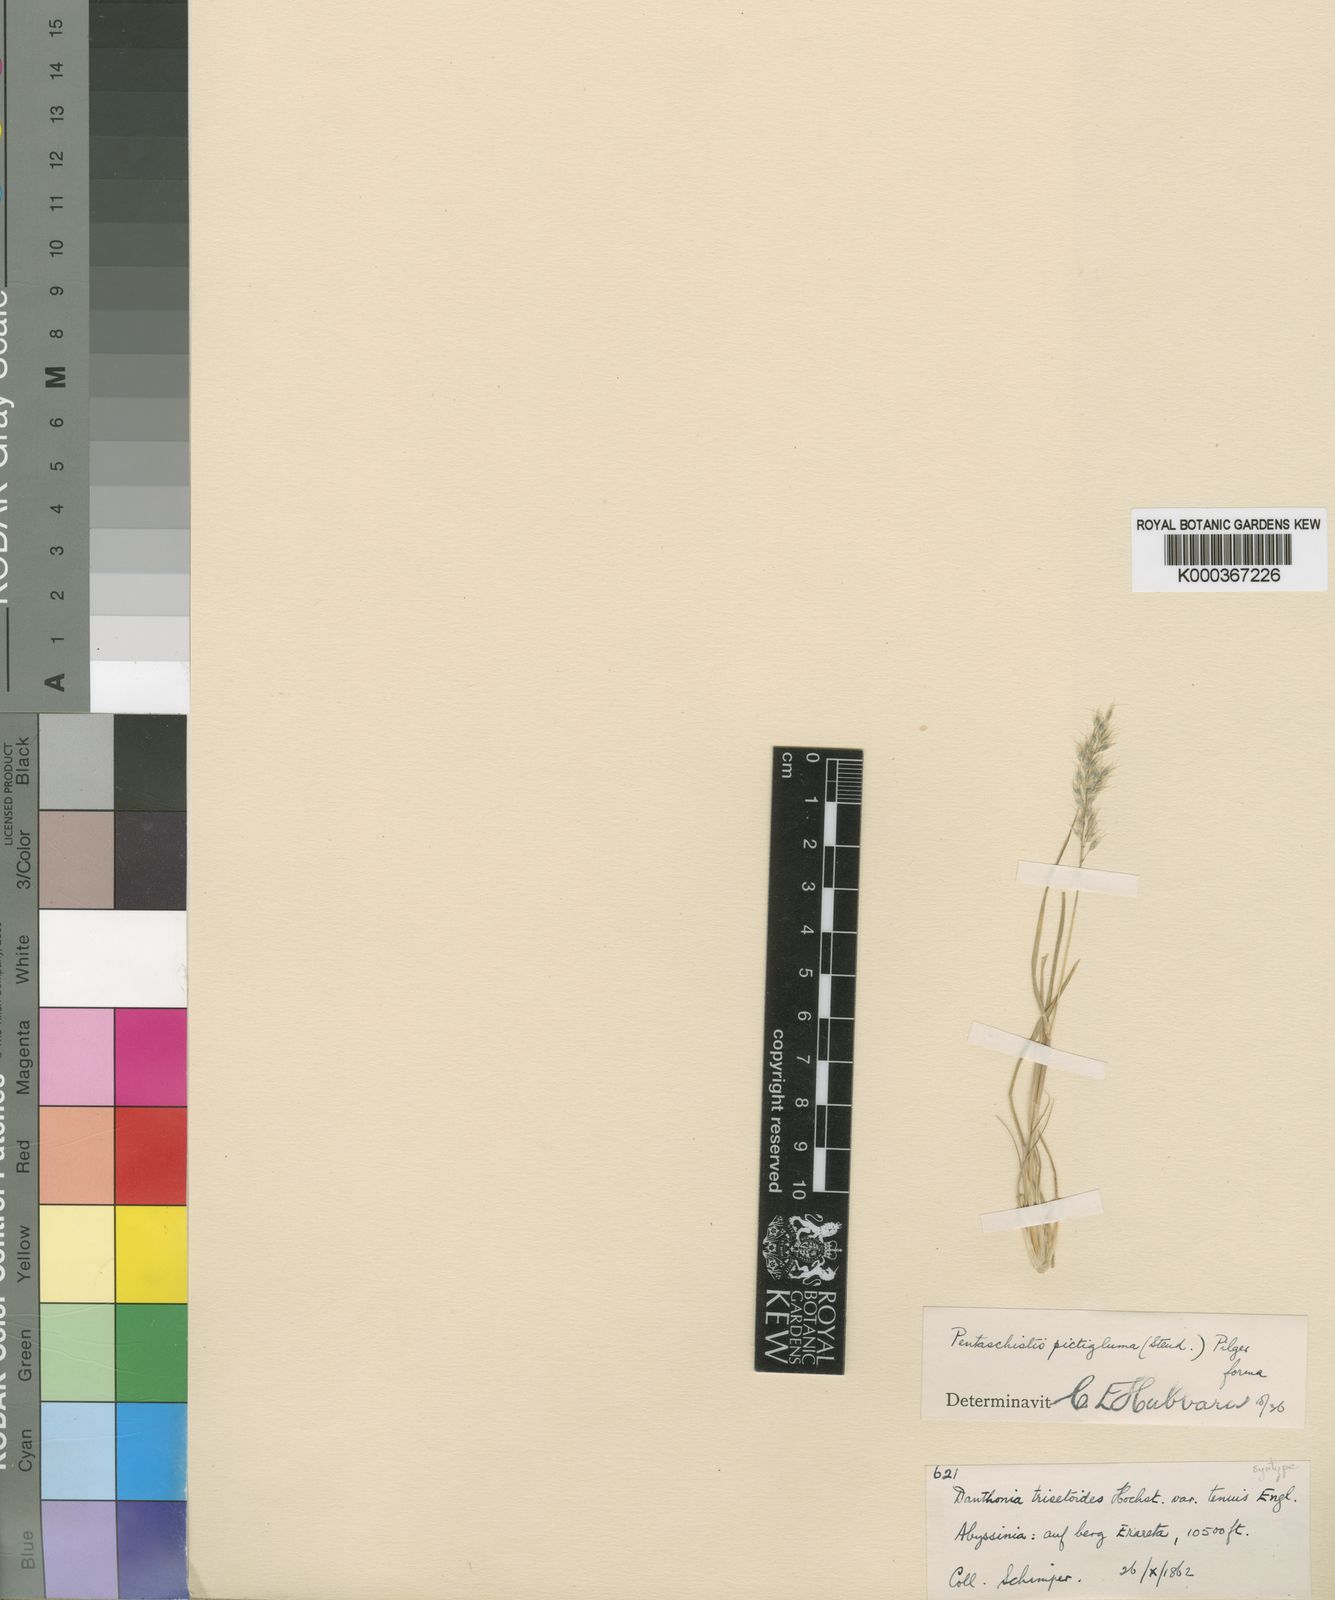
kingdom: Plantae
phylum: Tracheophyta
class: Liliopsida
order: Poales
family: Poaceae
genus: Pentameris
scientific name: Pentameris trisetoides
